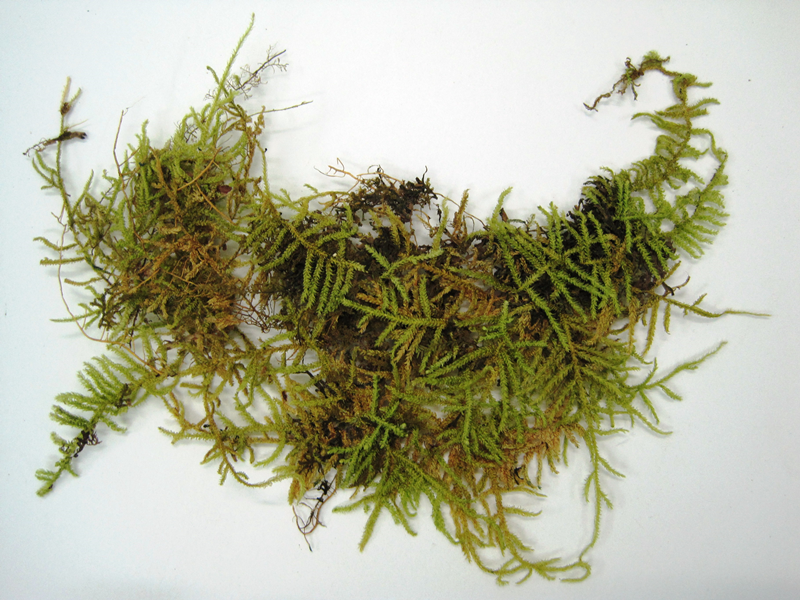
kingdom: Plantae
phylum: Bryophyta
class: Bryopsida
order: Hypnales
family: Hypnaceae
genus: Ectropothecium
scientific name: Ectropothecium
